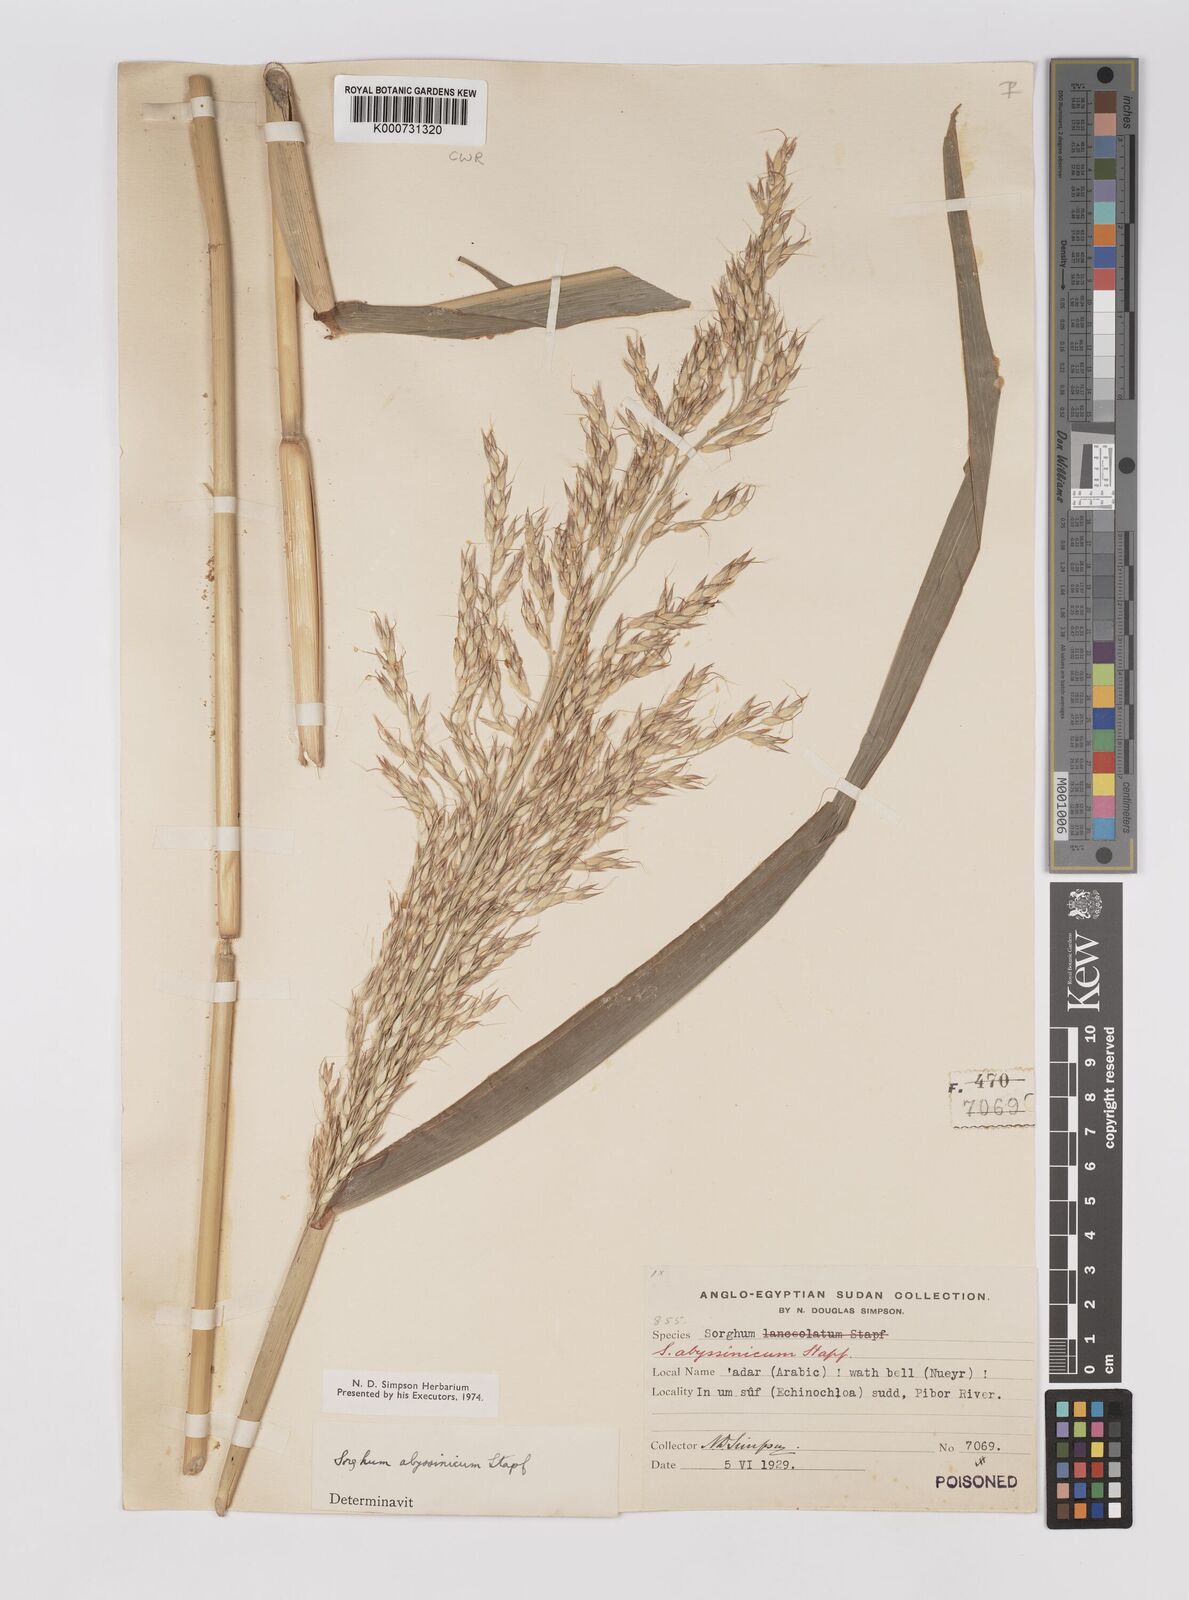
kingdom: Plantae
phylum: Tracheophyta
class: Liliopsida
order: Poales
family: Poaceae
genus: Sorghum
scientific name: Sorghum arundinaceum
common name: Sorghum
